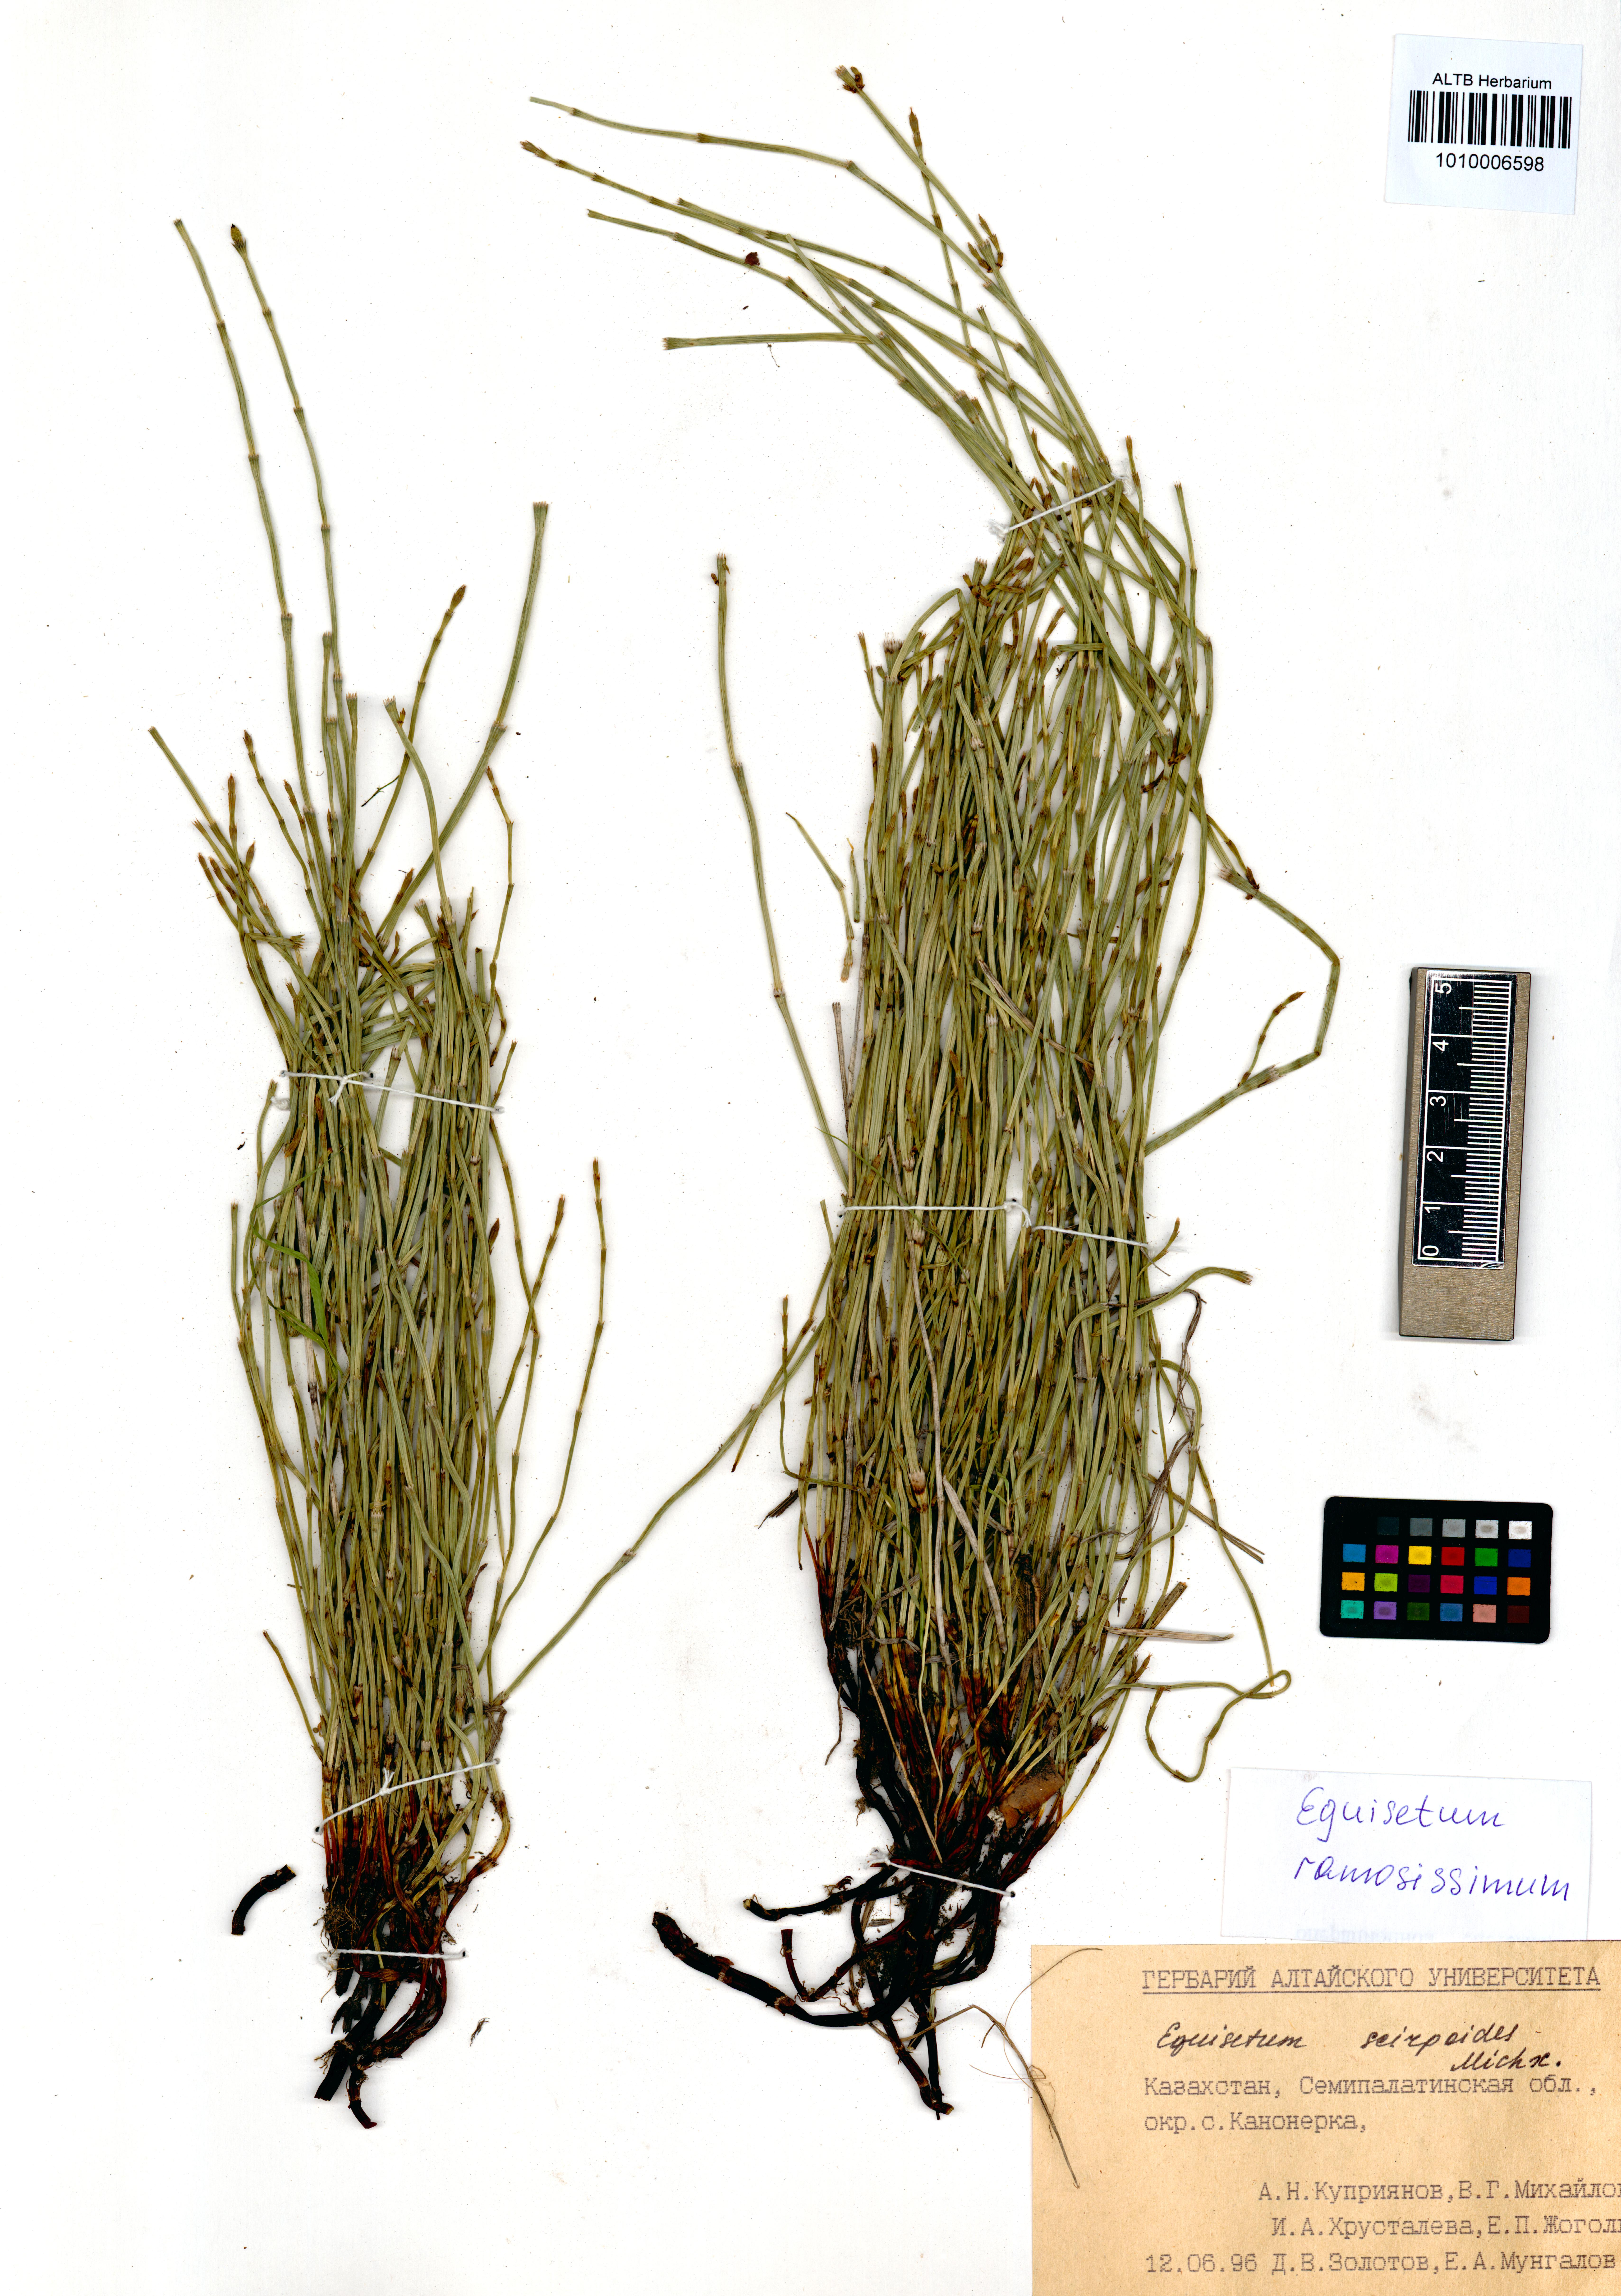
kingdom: Plantae
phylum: Tracheophyta
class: Polypodiopsida
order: Equisetales
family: Equisetaceae
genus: Equisetum
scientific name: Equisetum ramosissimum
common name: Branched horsetail
